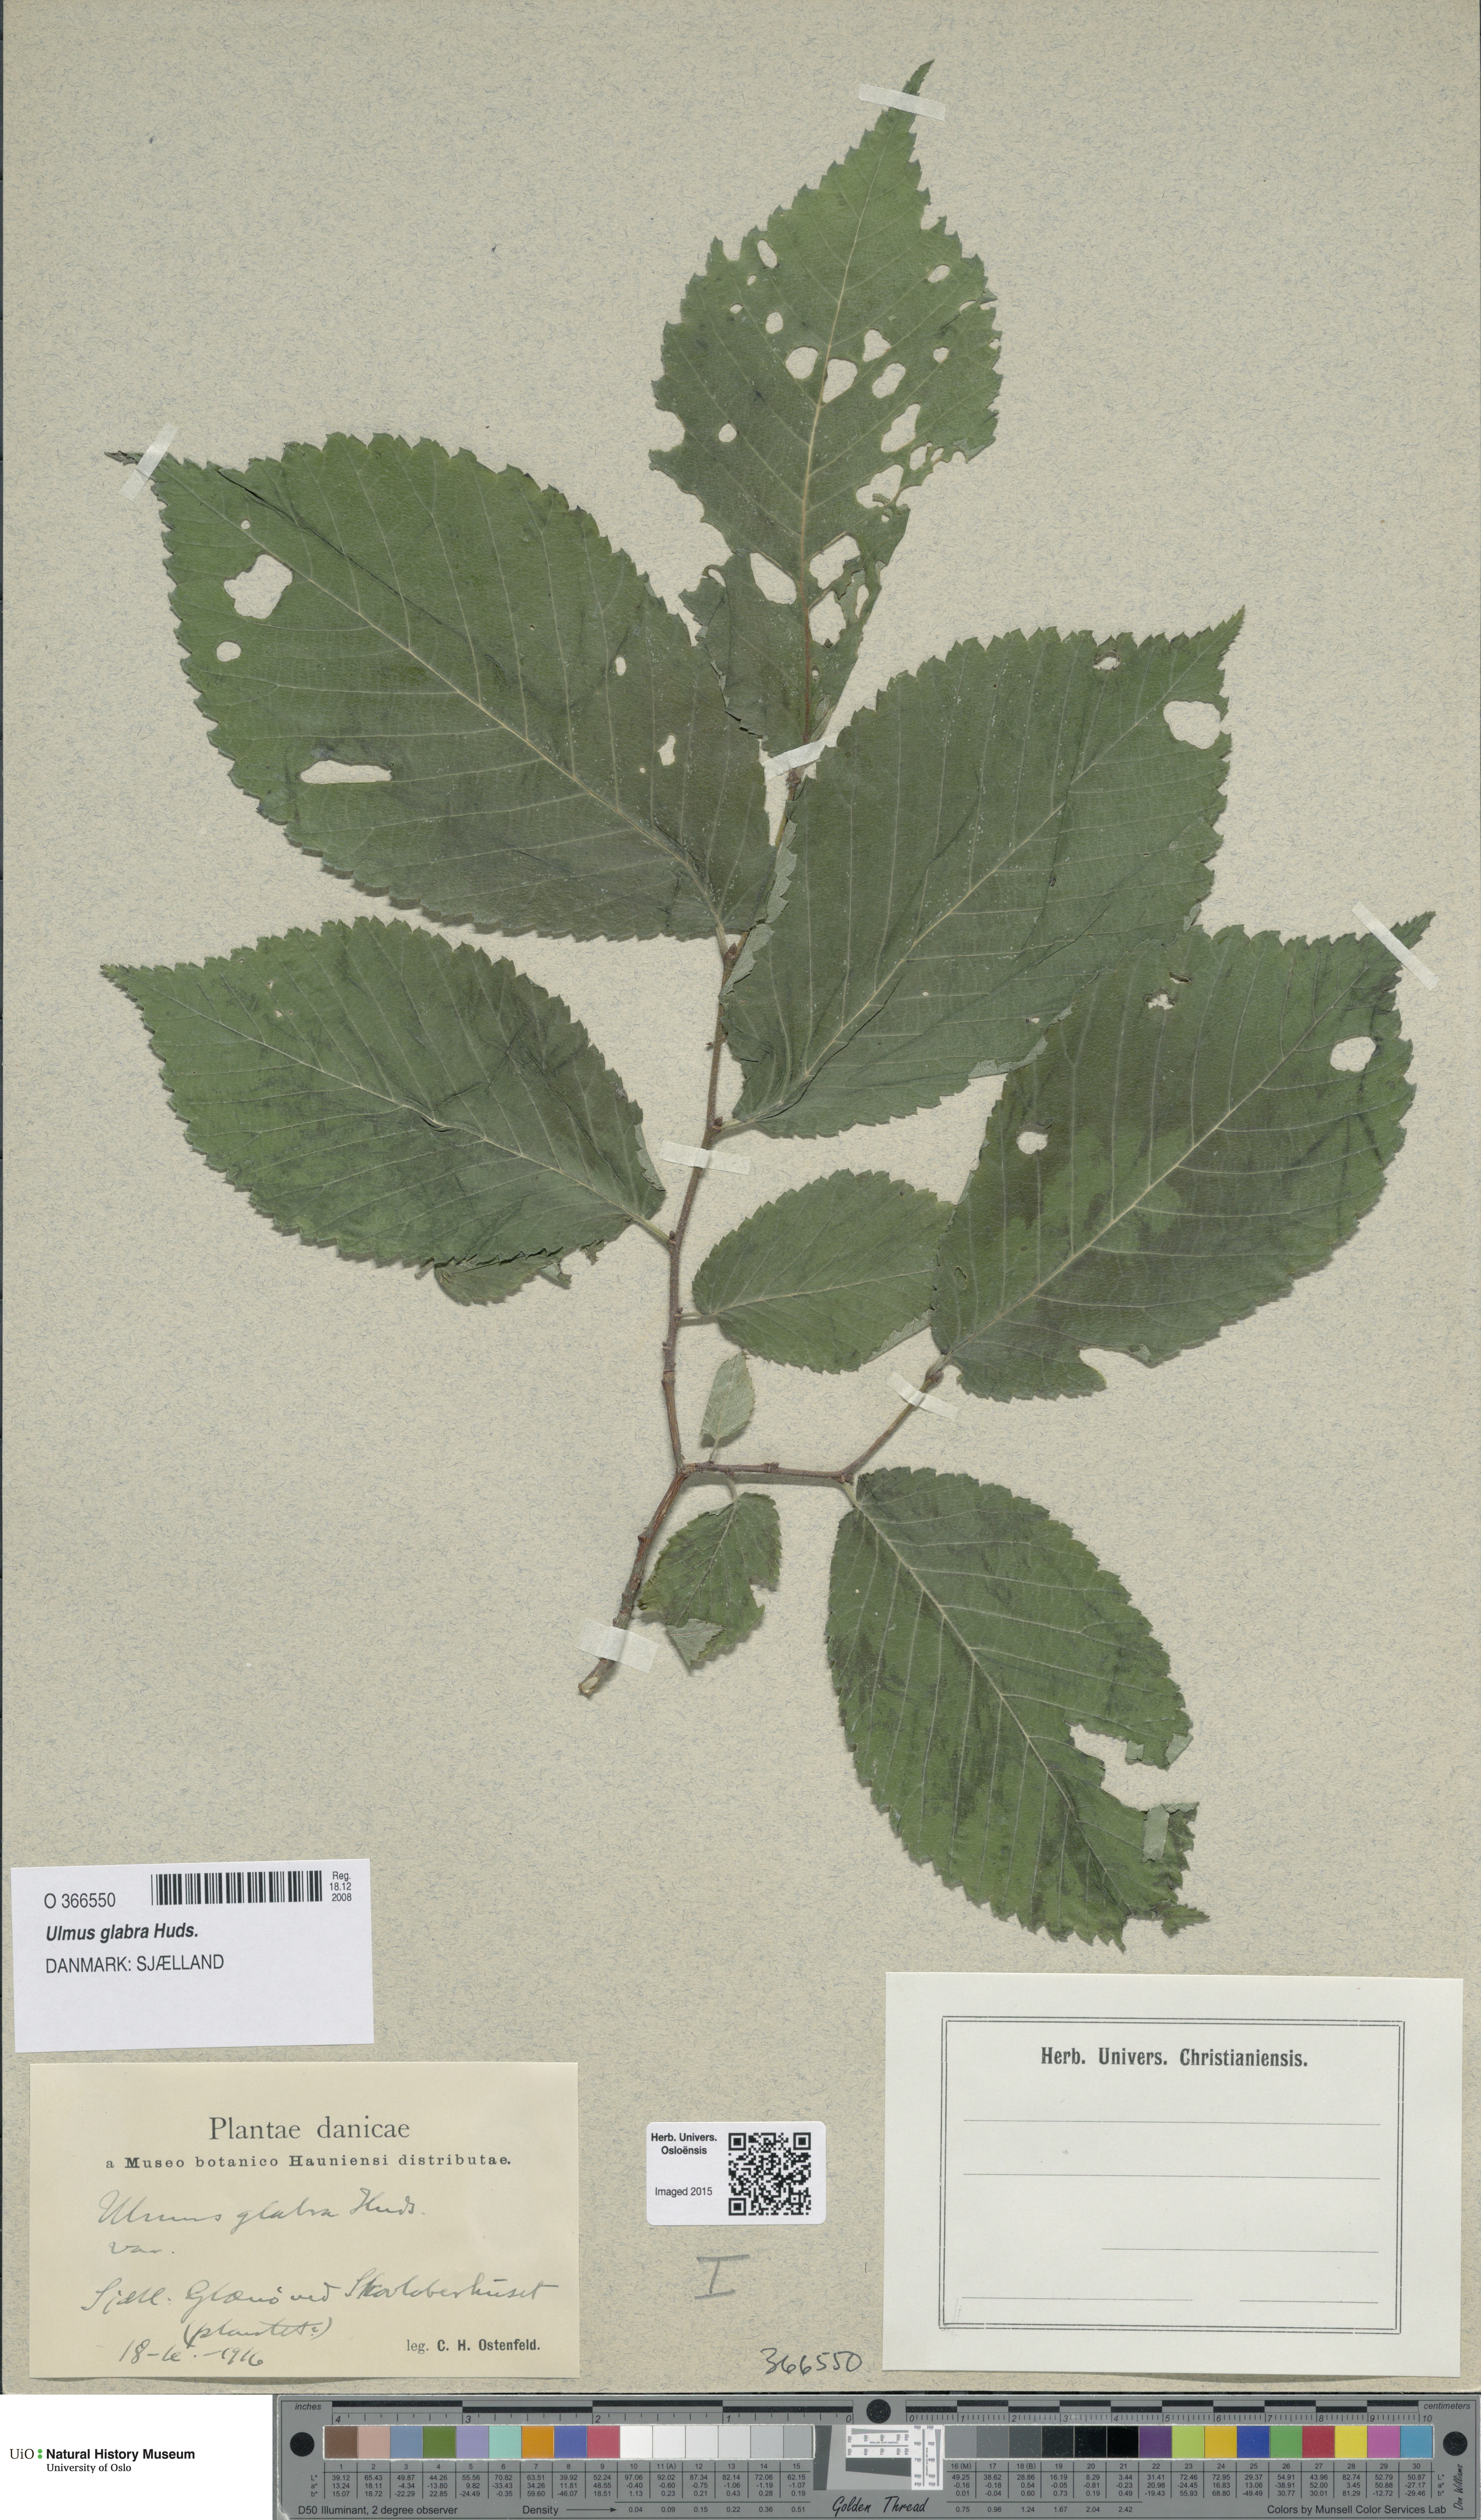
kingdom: Plantae
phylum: Tracheophyta
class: Magnoliopsida
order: Rosales
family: Ulmaceae
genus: Ulmus
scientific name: Ulmus glabra
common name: Wych elm
